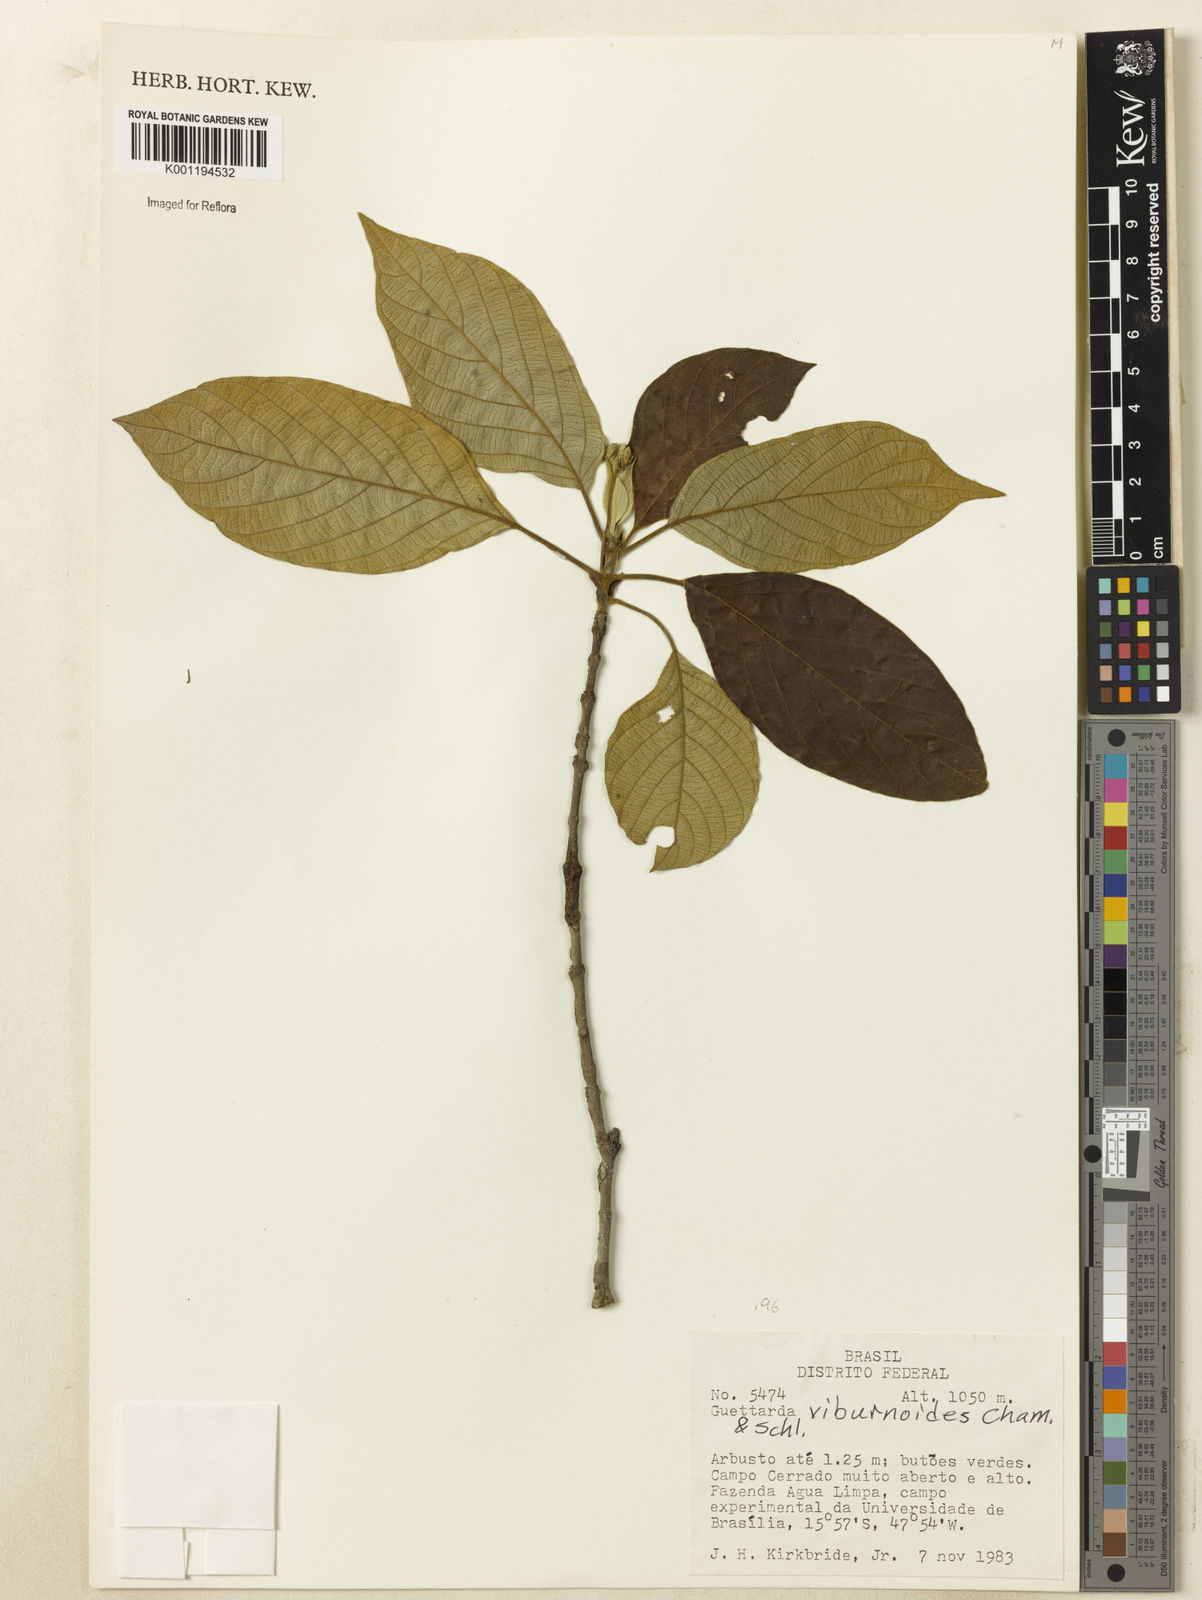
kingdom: Plantae
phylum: Tracheophyta
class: Magnoliopsida
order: Gentianales
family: Rubiaceae
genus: Guettarda
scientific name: Guettarda viburnoides
